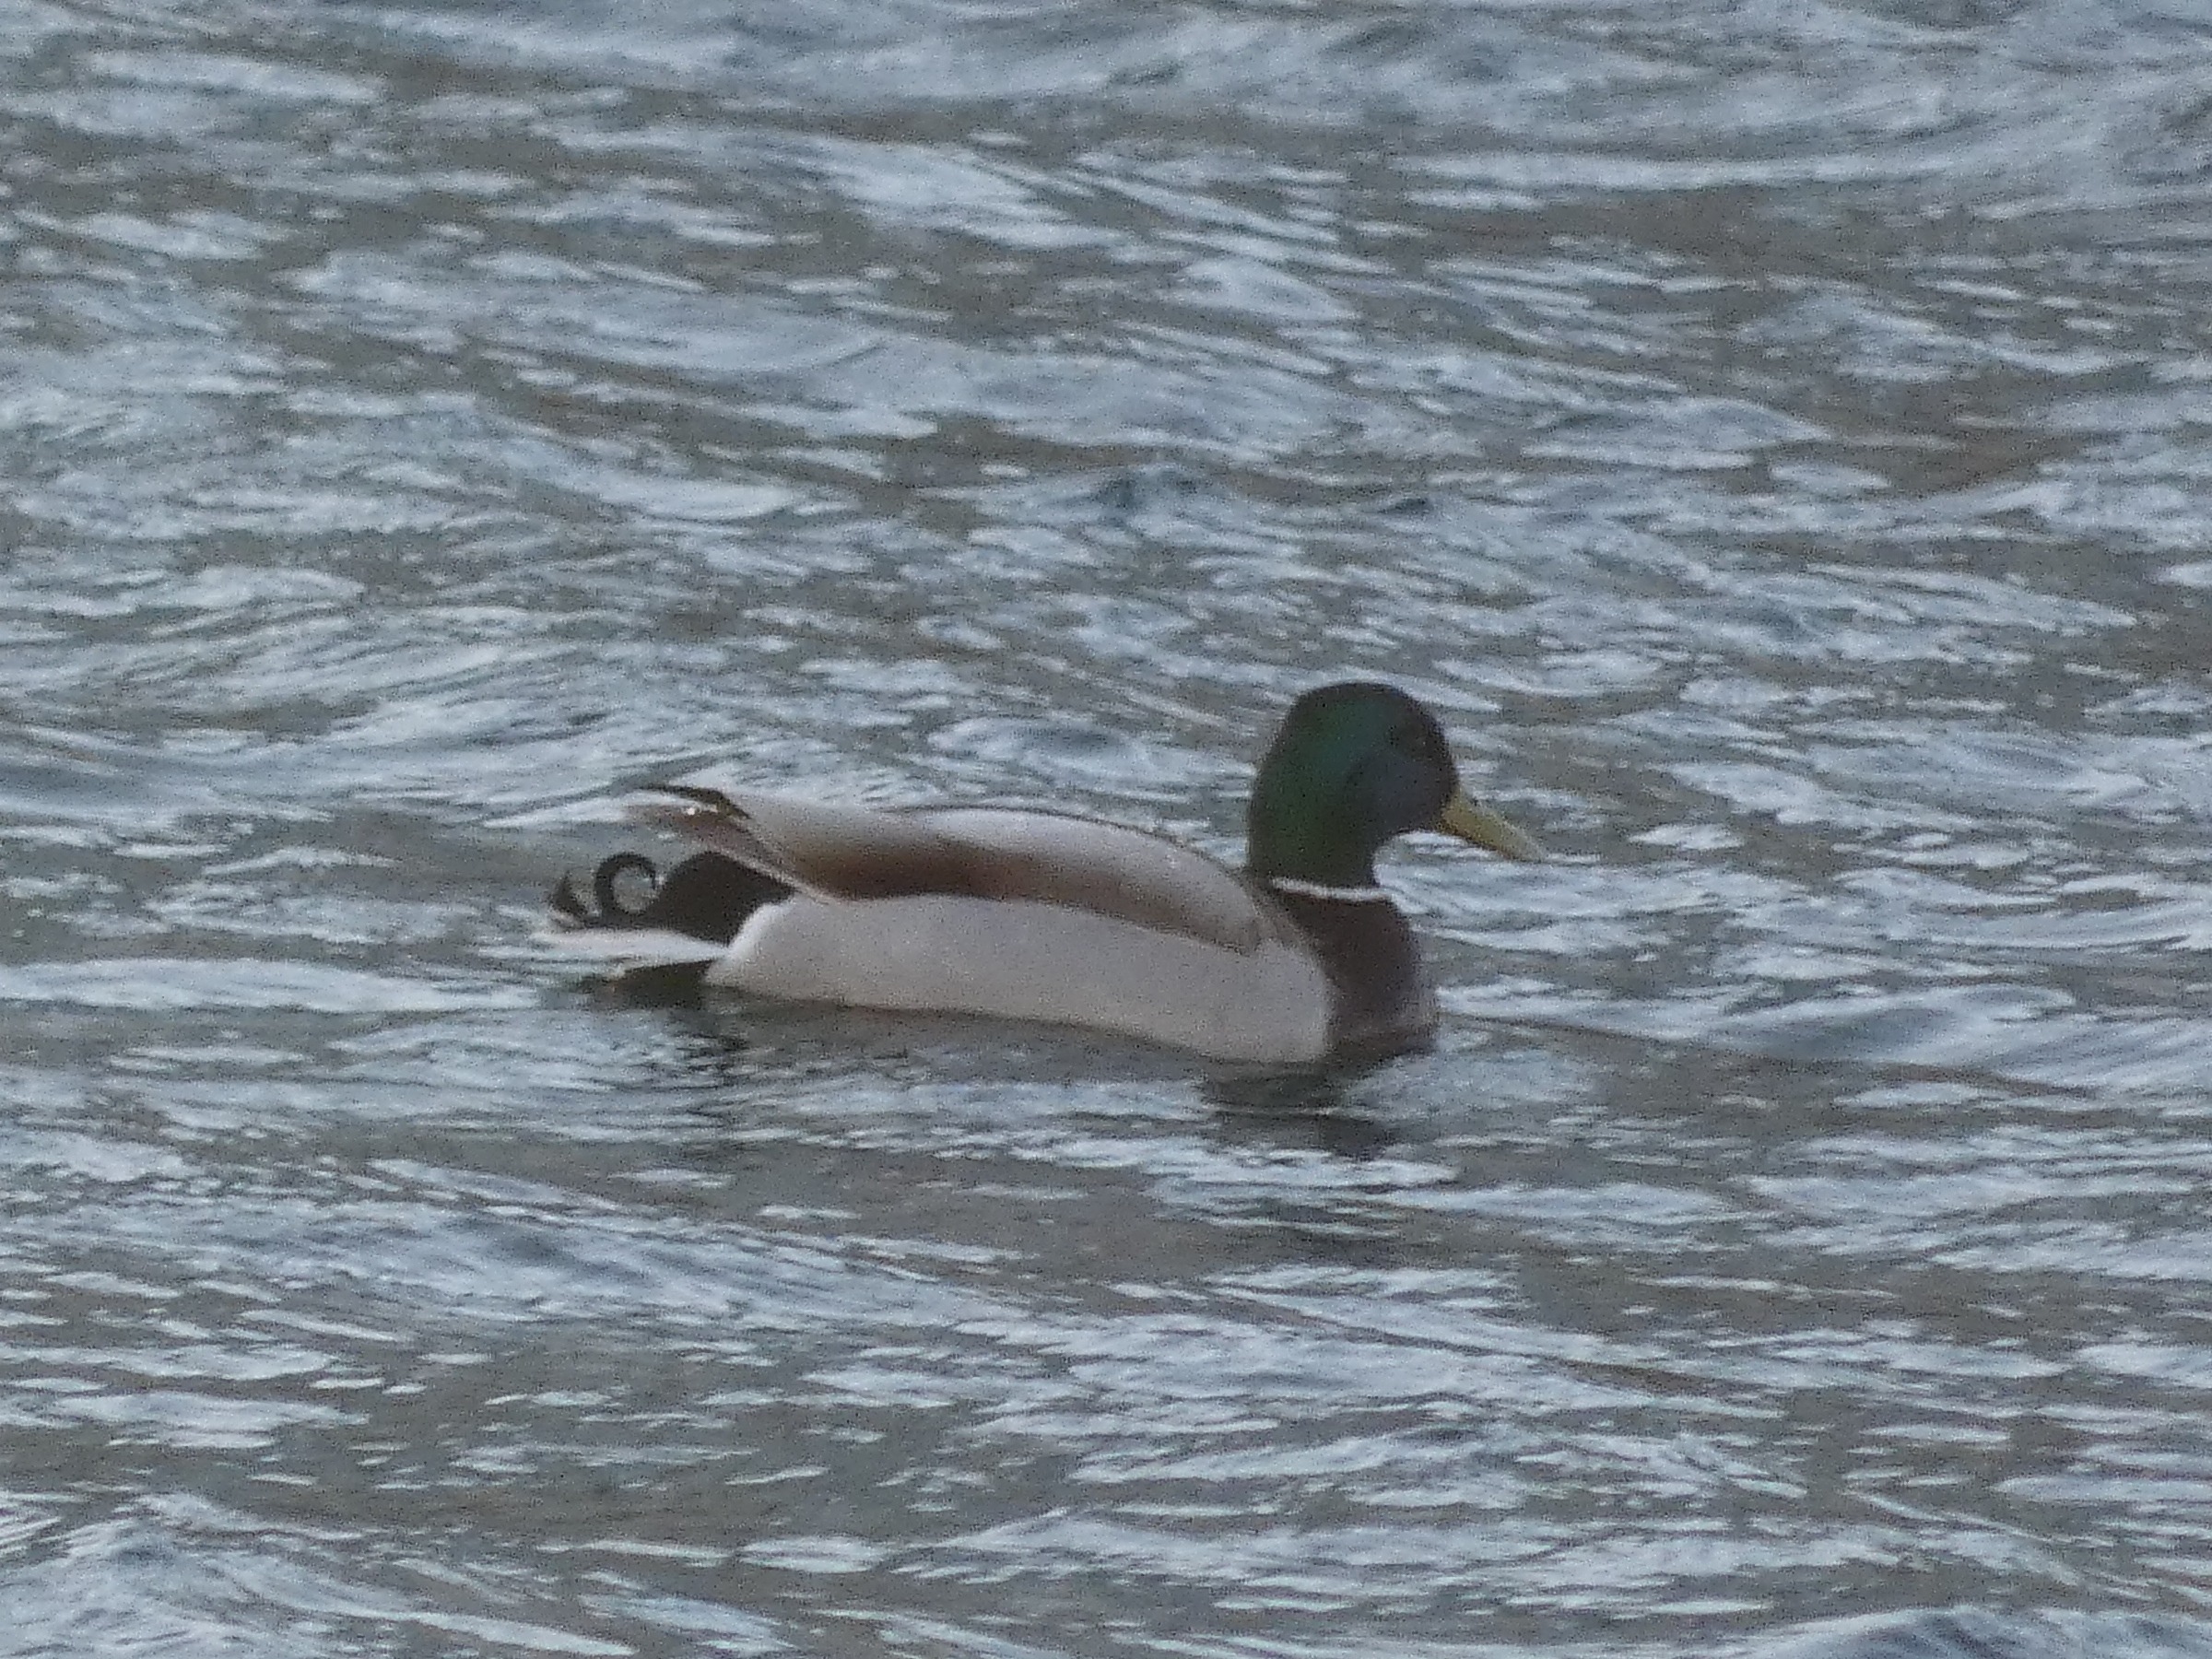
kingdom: Animalia
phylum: Chordata
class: Aves
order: Anseriformes
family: Anatidae
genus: Anas
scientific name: Anas platyrhynchos
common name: Gråand
